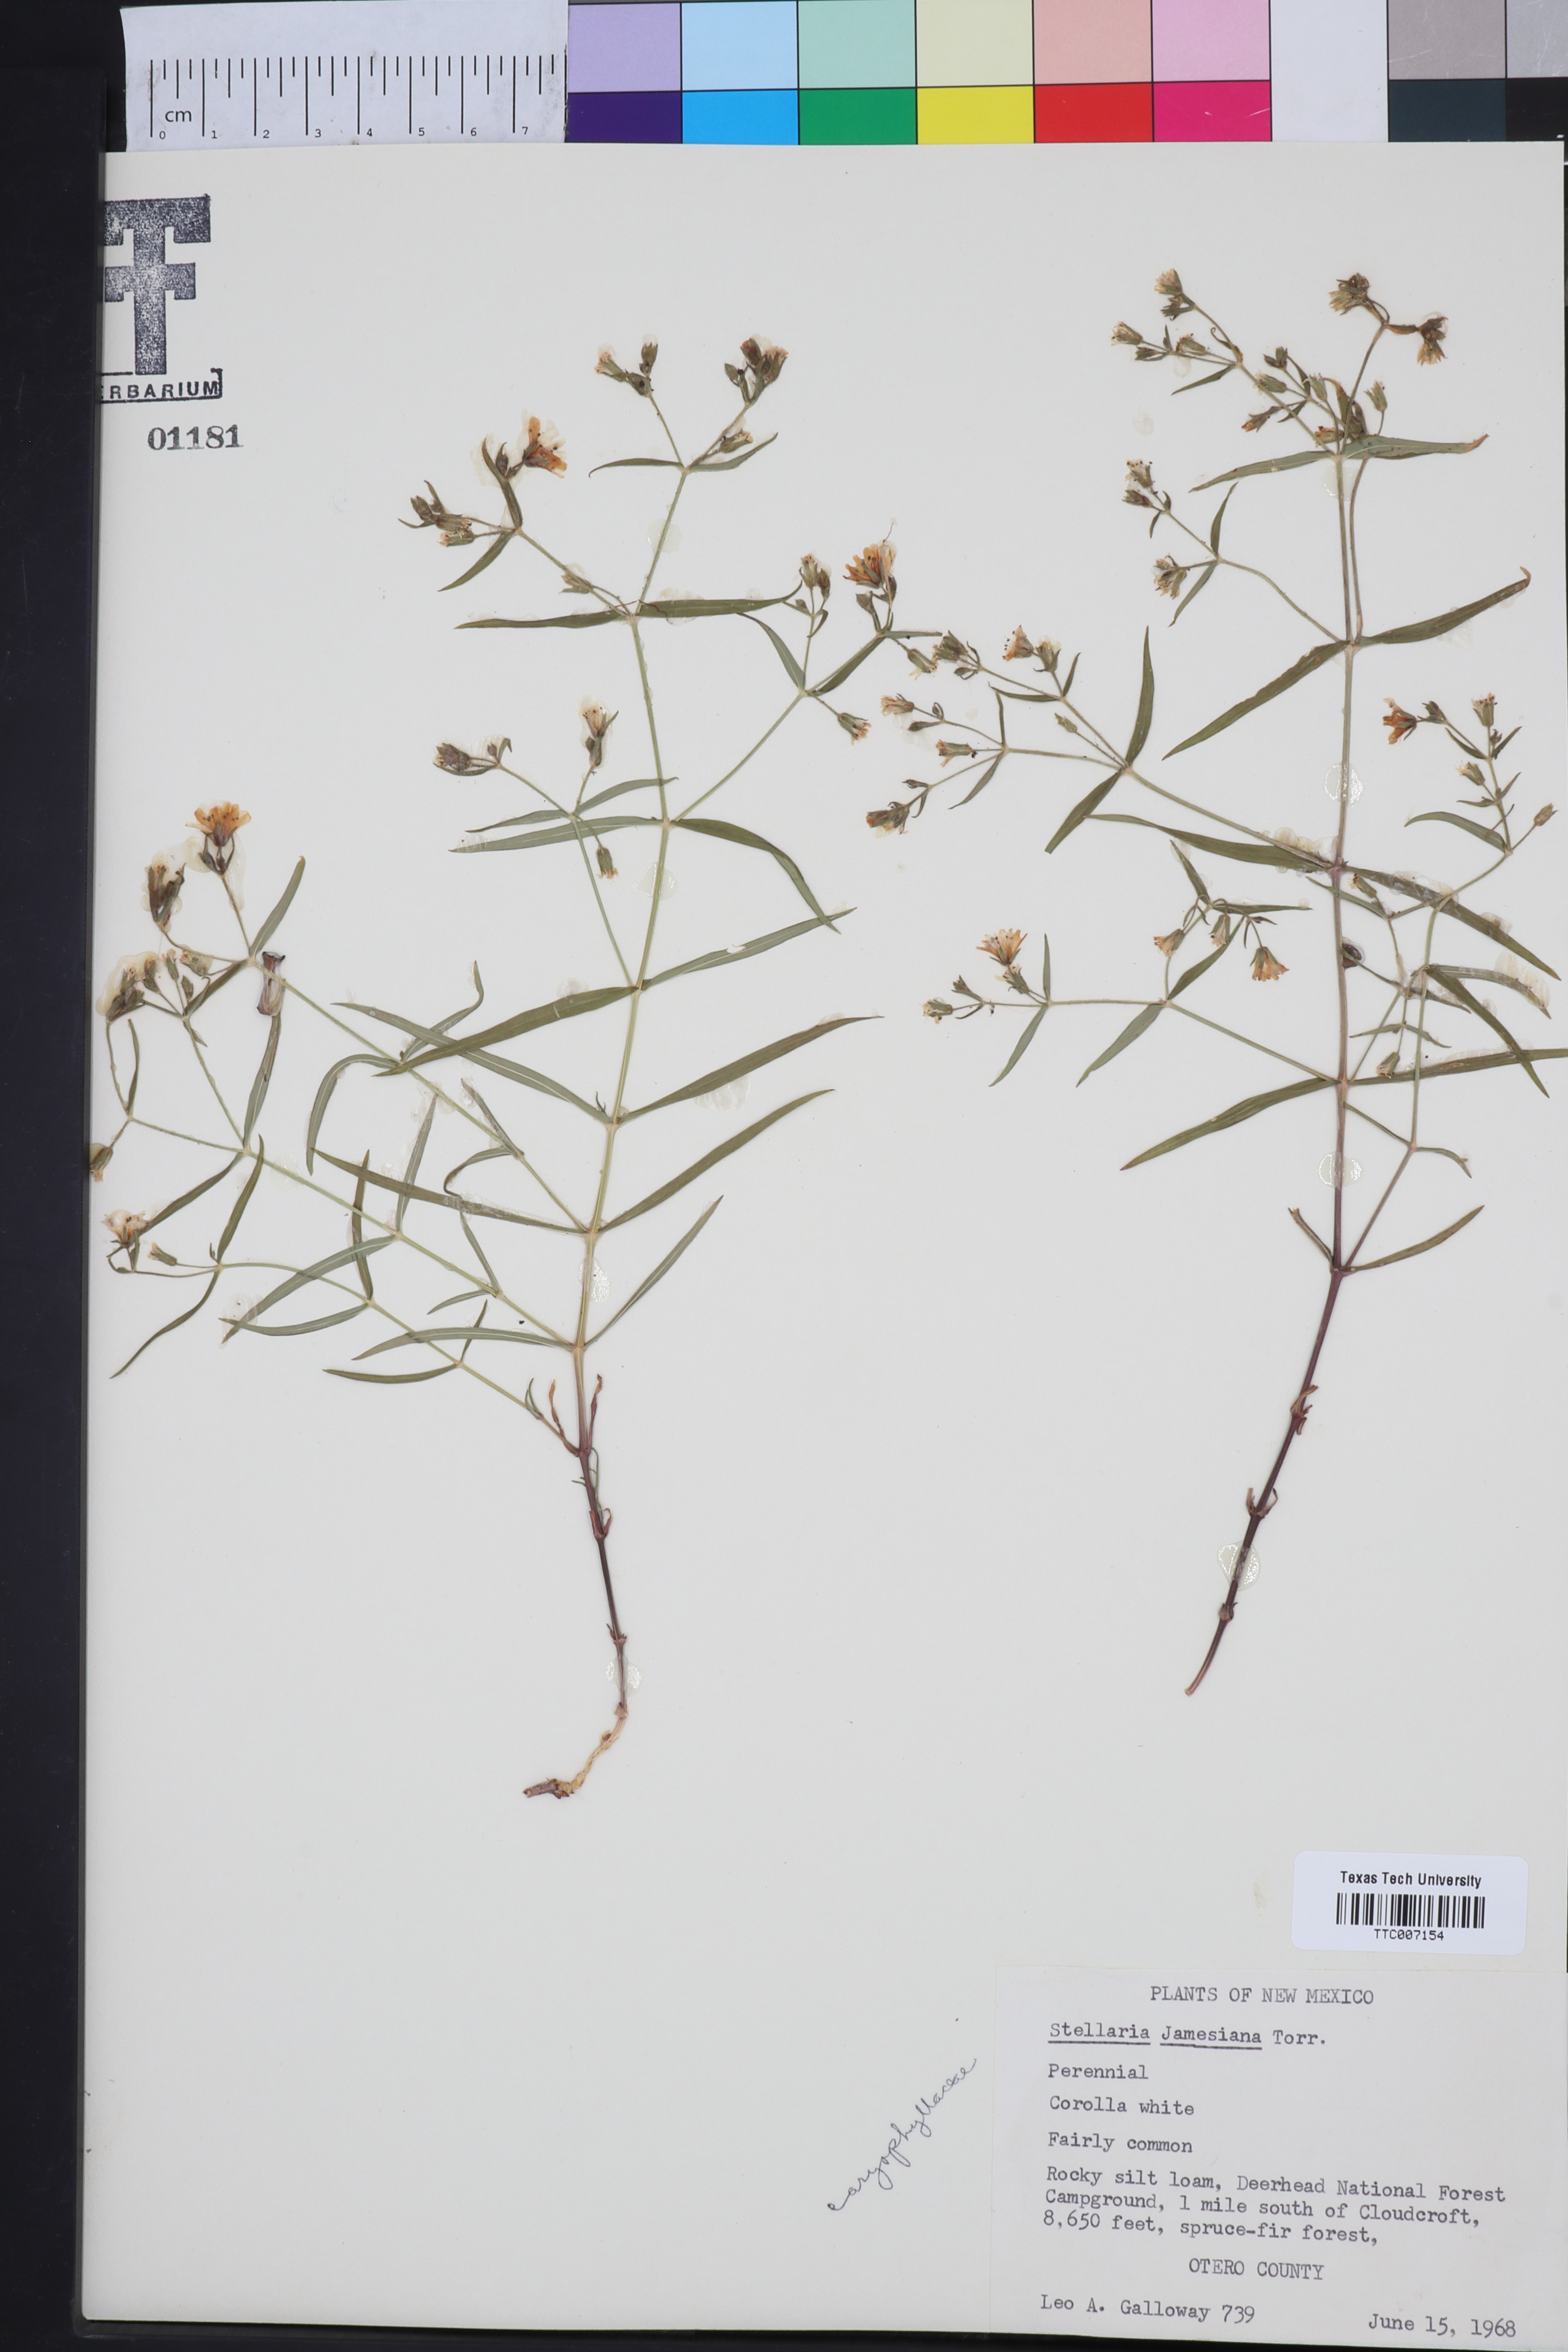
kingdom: Plantae
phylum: Tracheophyta
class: Magnoliopsida
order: Caryophyllales
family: Caryophyllaceae
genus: Schizotechium
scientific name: Schizotechium jamesianum
